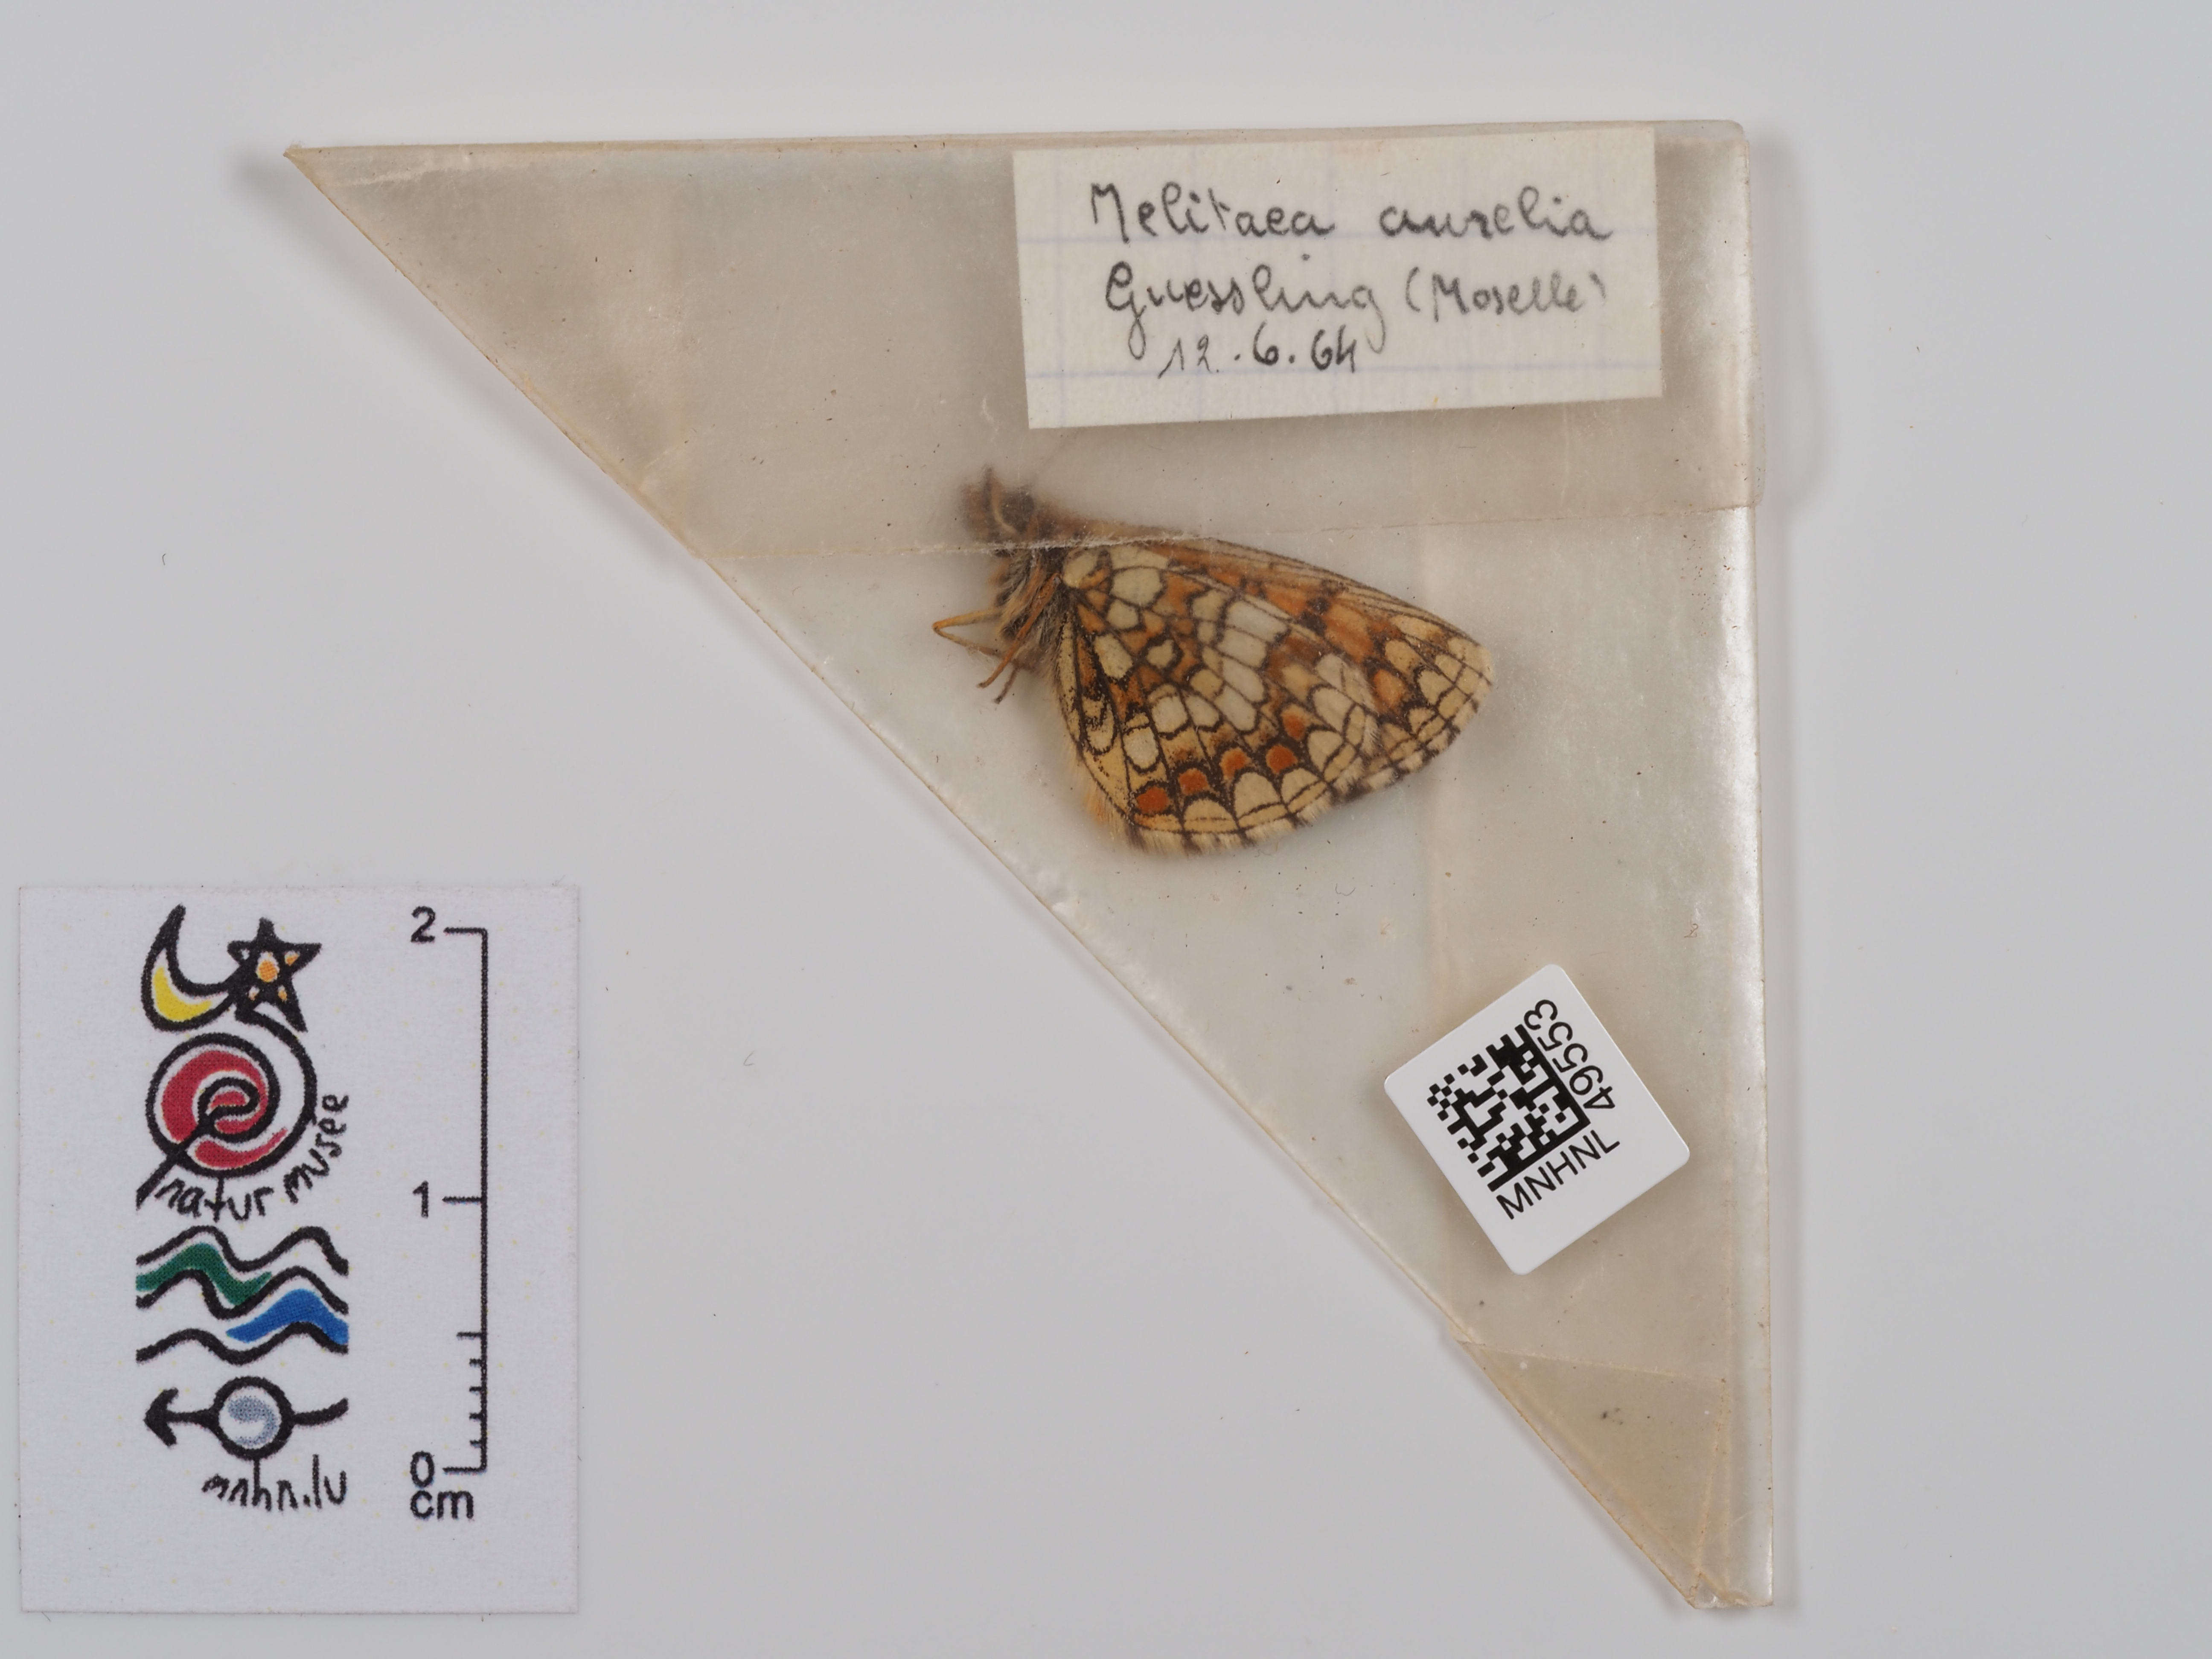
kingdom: Animalia
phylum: Arthropoda
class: Insecta
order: Lepidoptera
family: Nymphalidae
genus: Mellicta
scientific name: Mellicta aurelia
